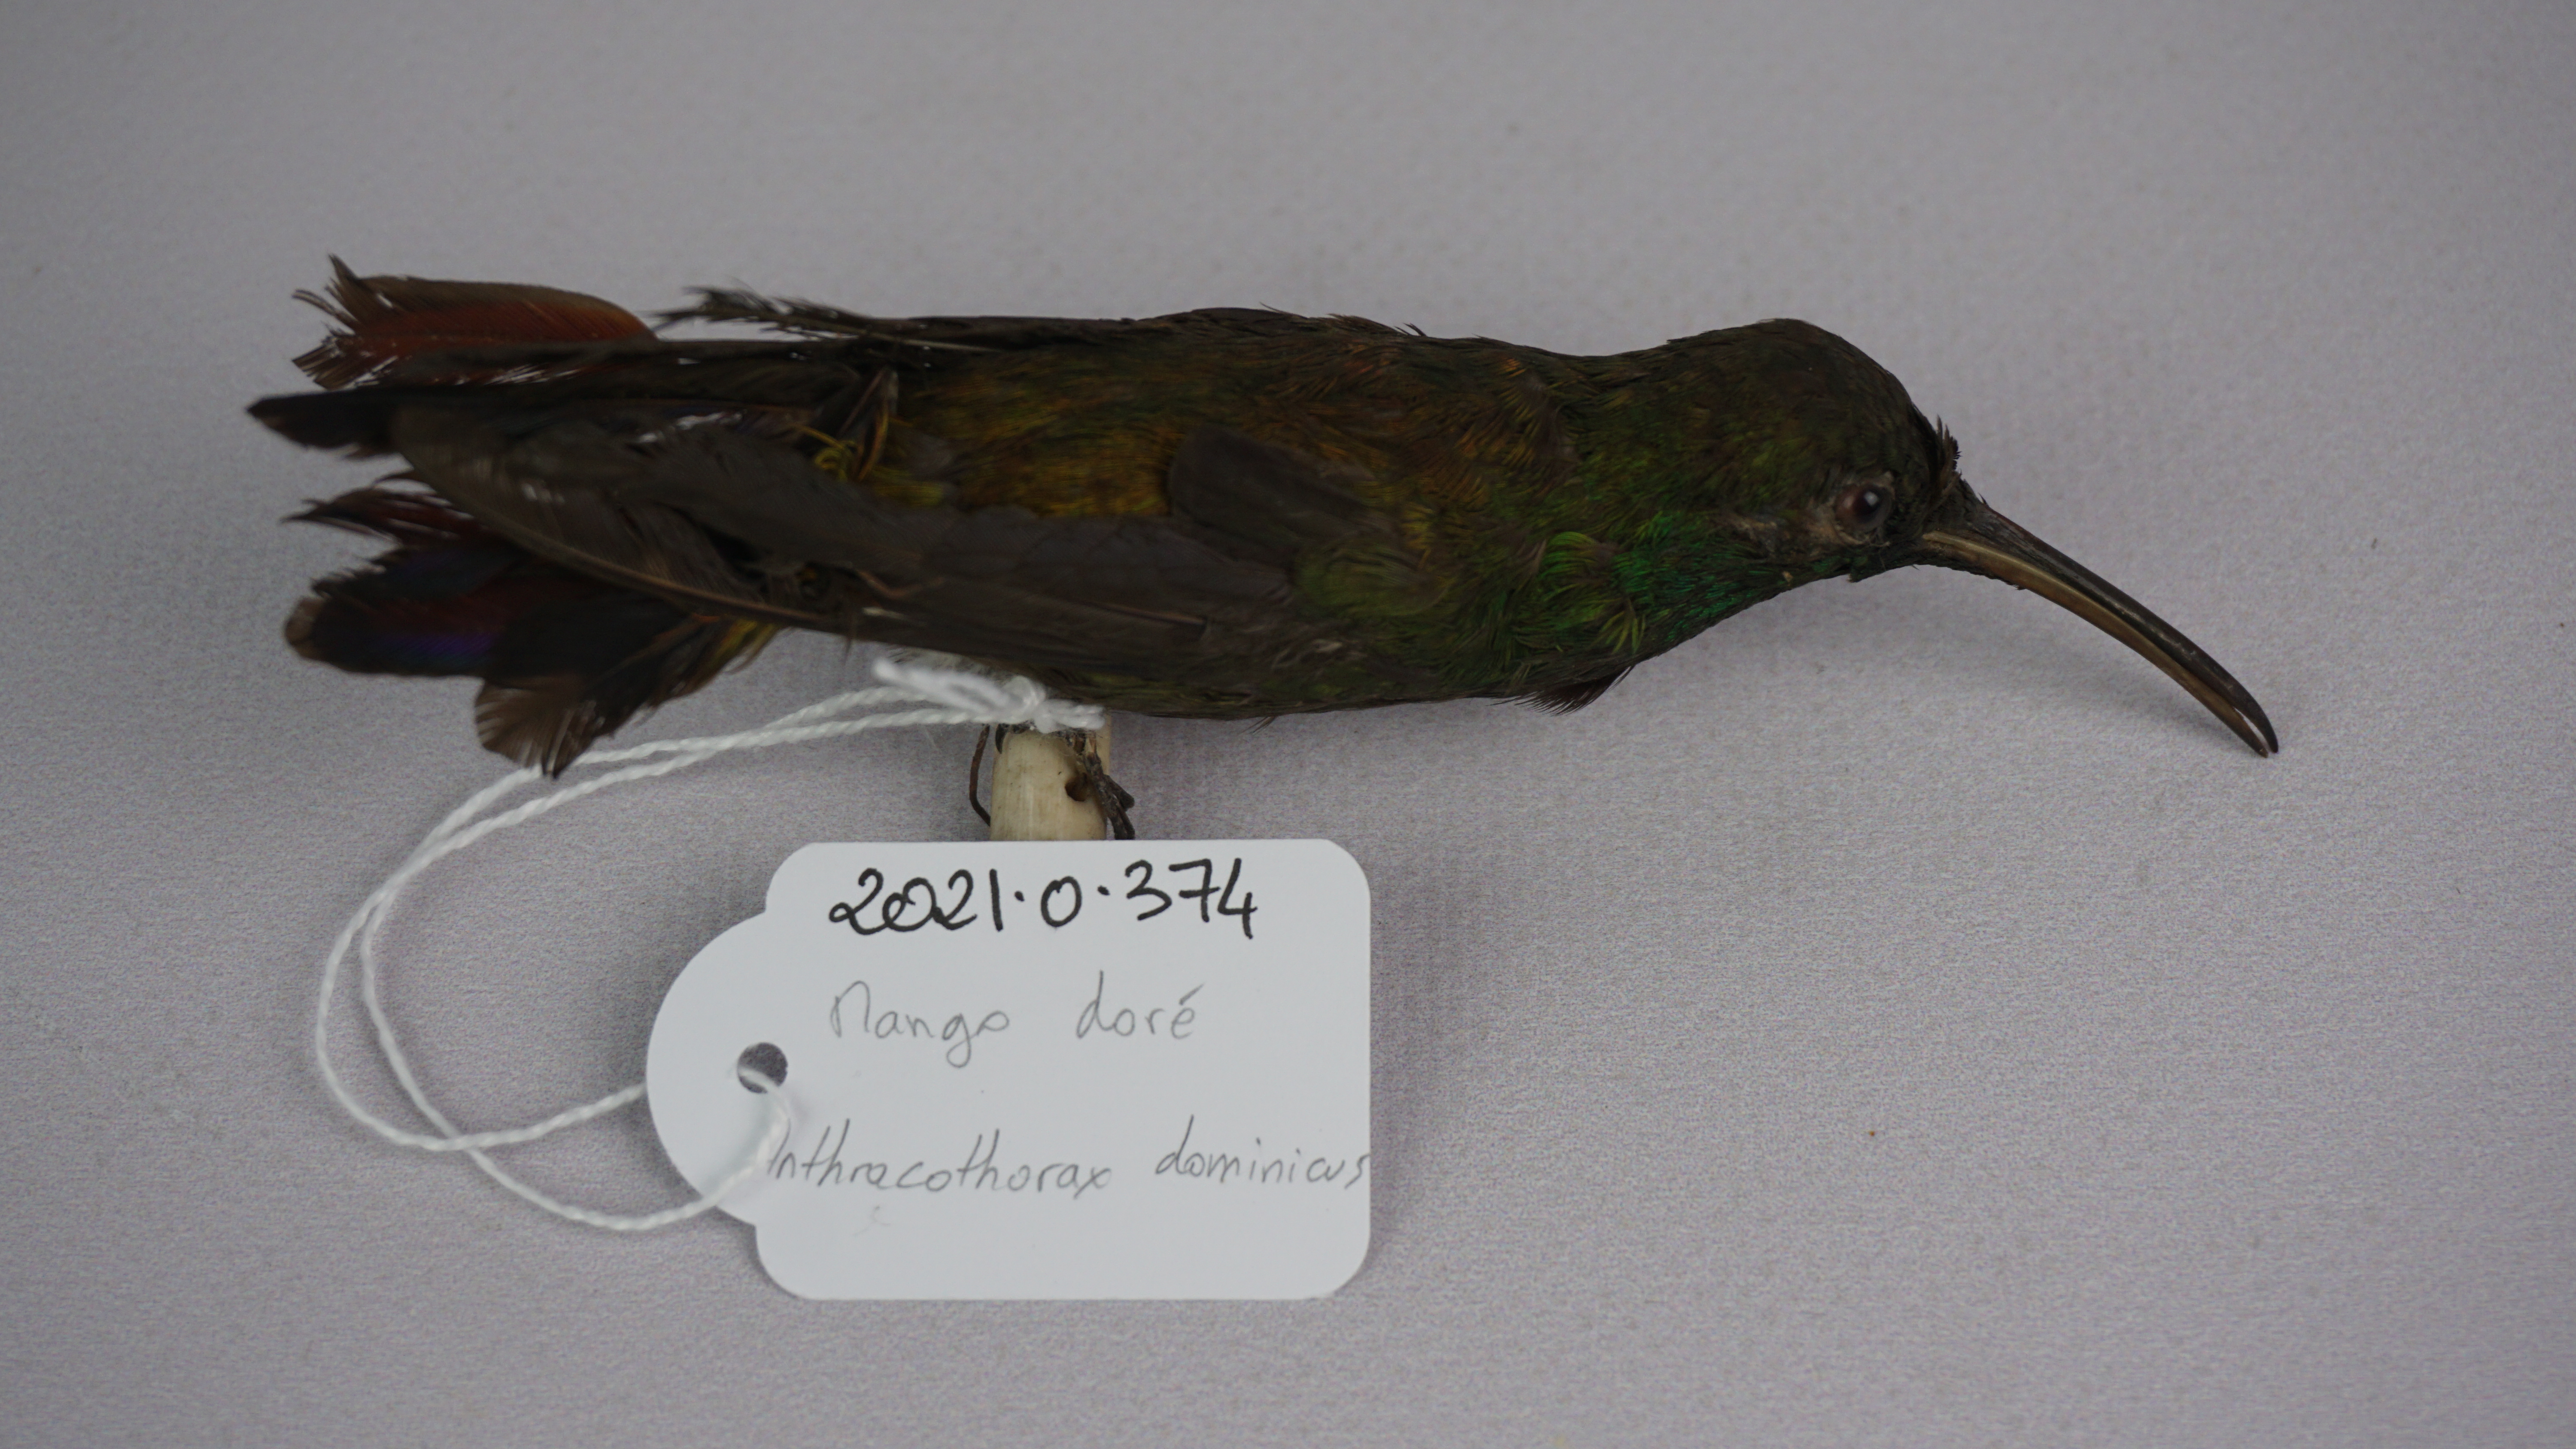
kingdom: Animalia
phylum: Chordata
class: Aves
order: Apodiformes
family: Trochilidae
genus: Anthracothorax
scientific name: Anthracothorax dominicus
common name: Antillean mango
